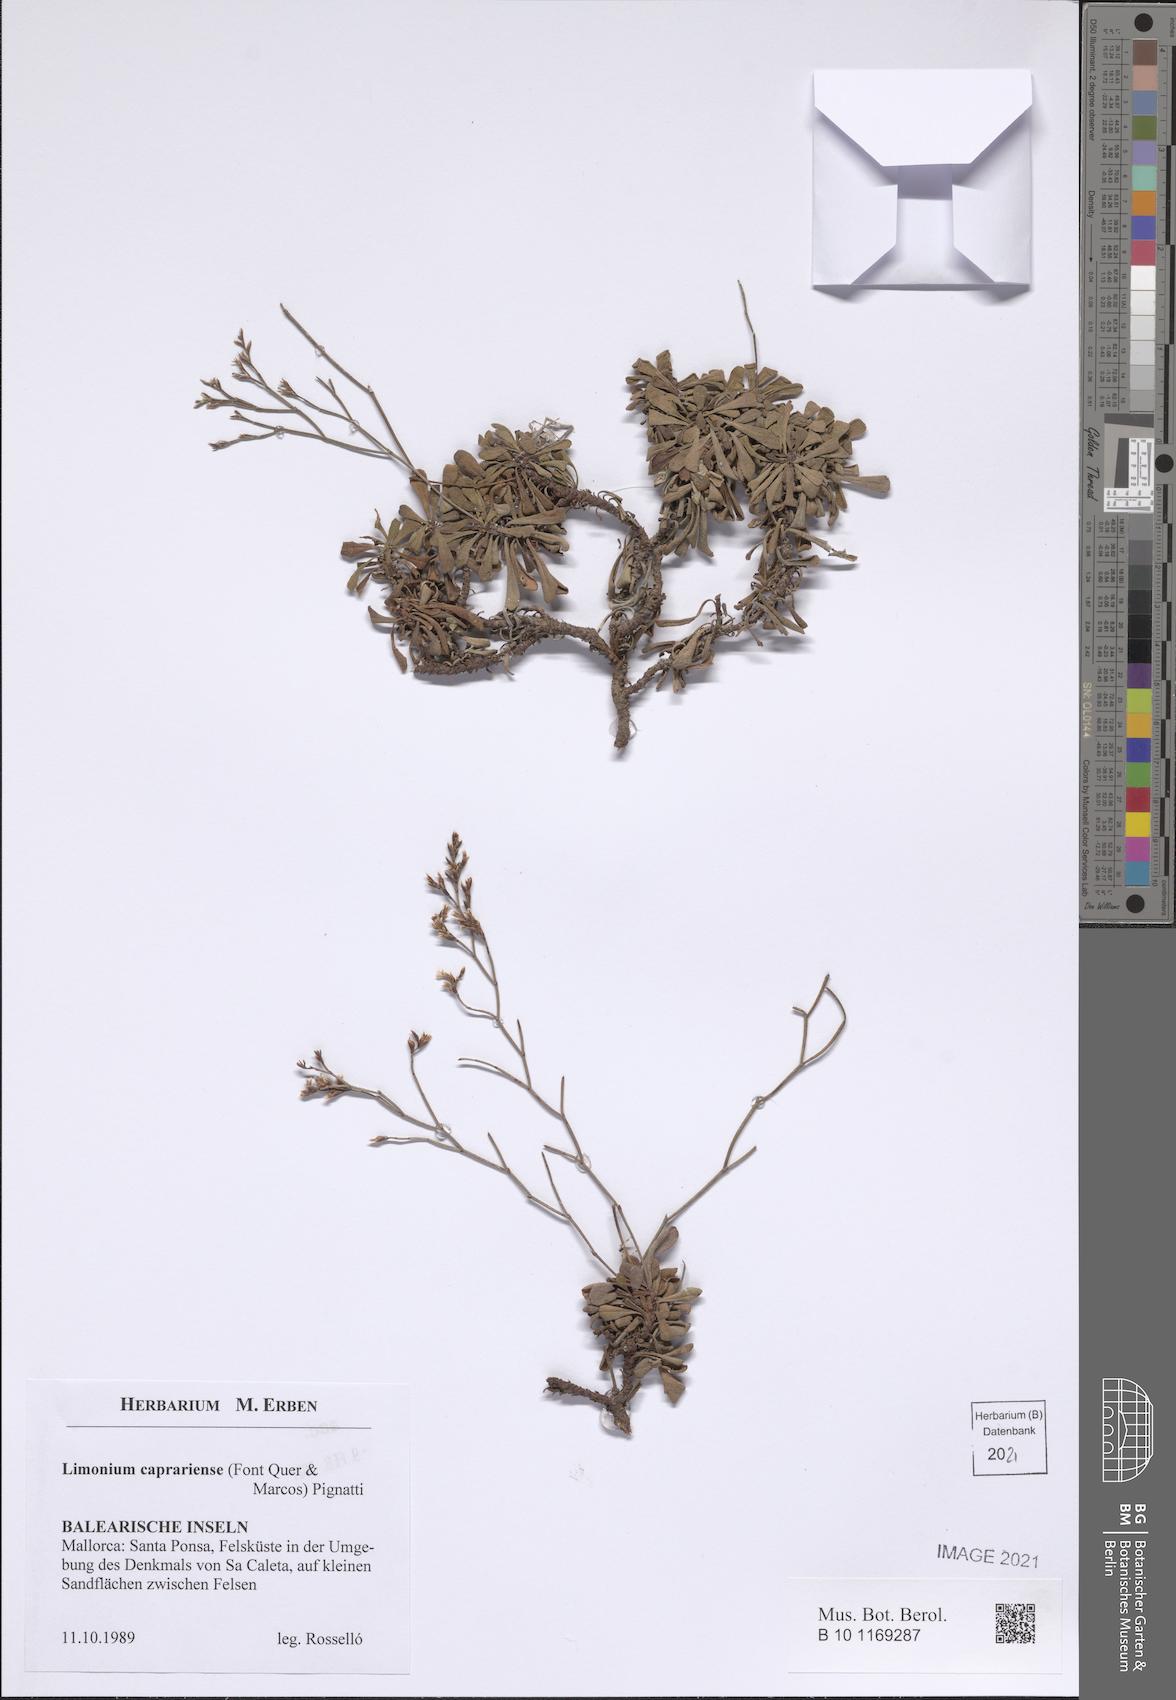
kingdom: Plantae
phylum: Tracheophyta
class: Magnoliopsida
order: Caryophyllales
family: Plumbaginaceae
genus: Limonium
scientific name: Limonium caprariense
